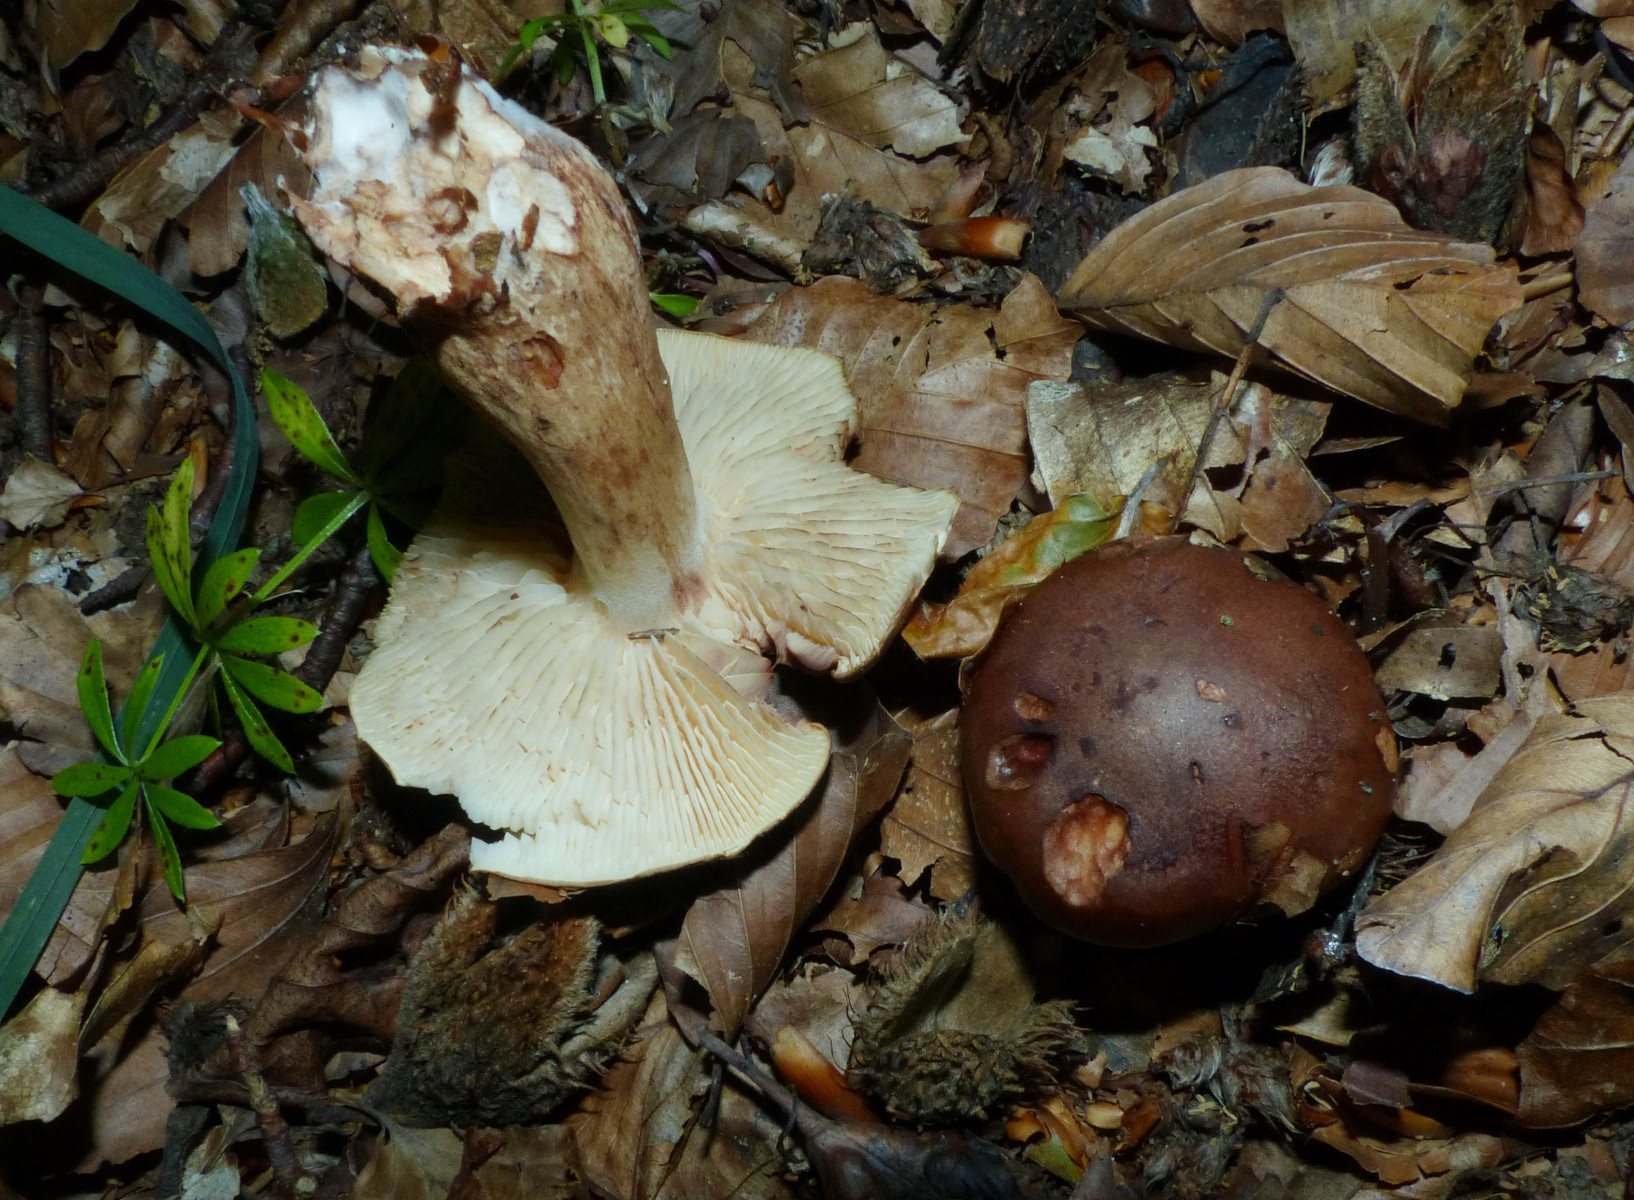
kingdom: Fungi
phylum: Basidiomycota
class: Agaricomycetes
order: Agaricales
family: Tricholomataceae
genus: Tricholoma
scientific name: Tricholoma ustale
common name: sveden ridderhat
